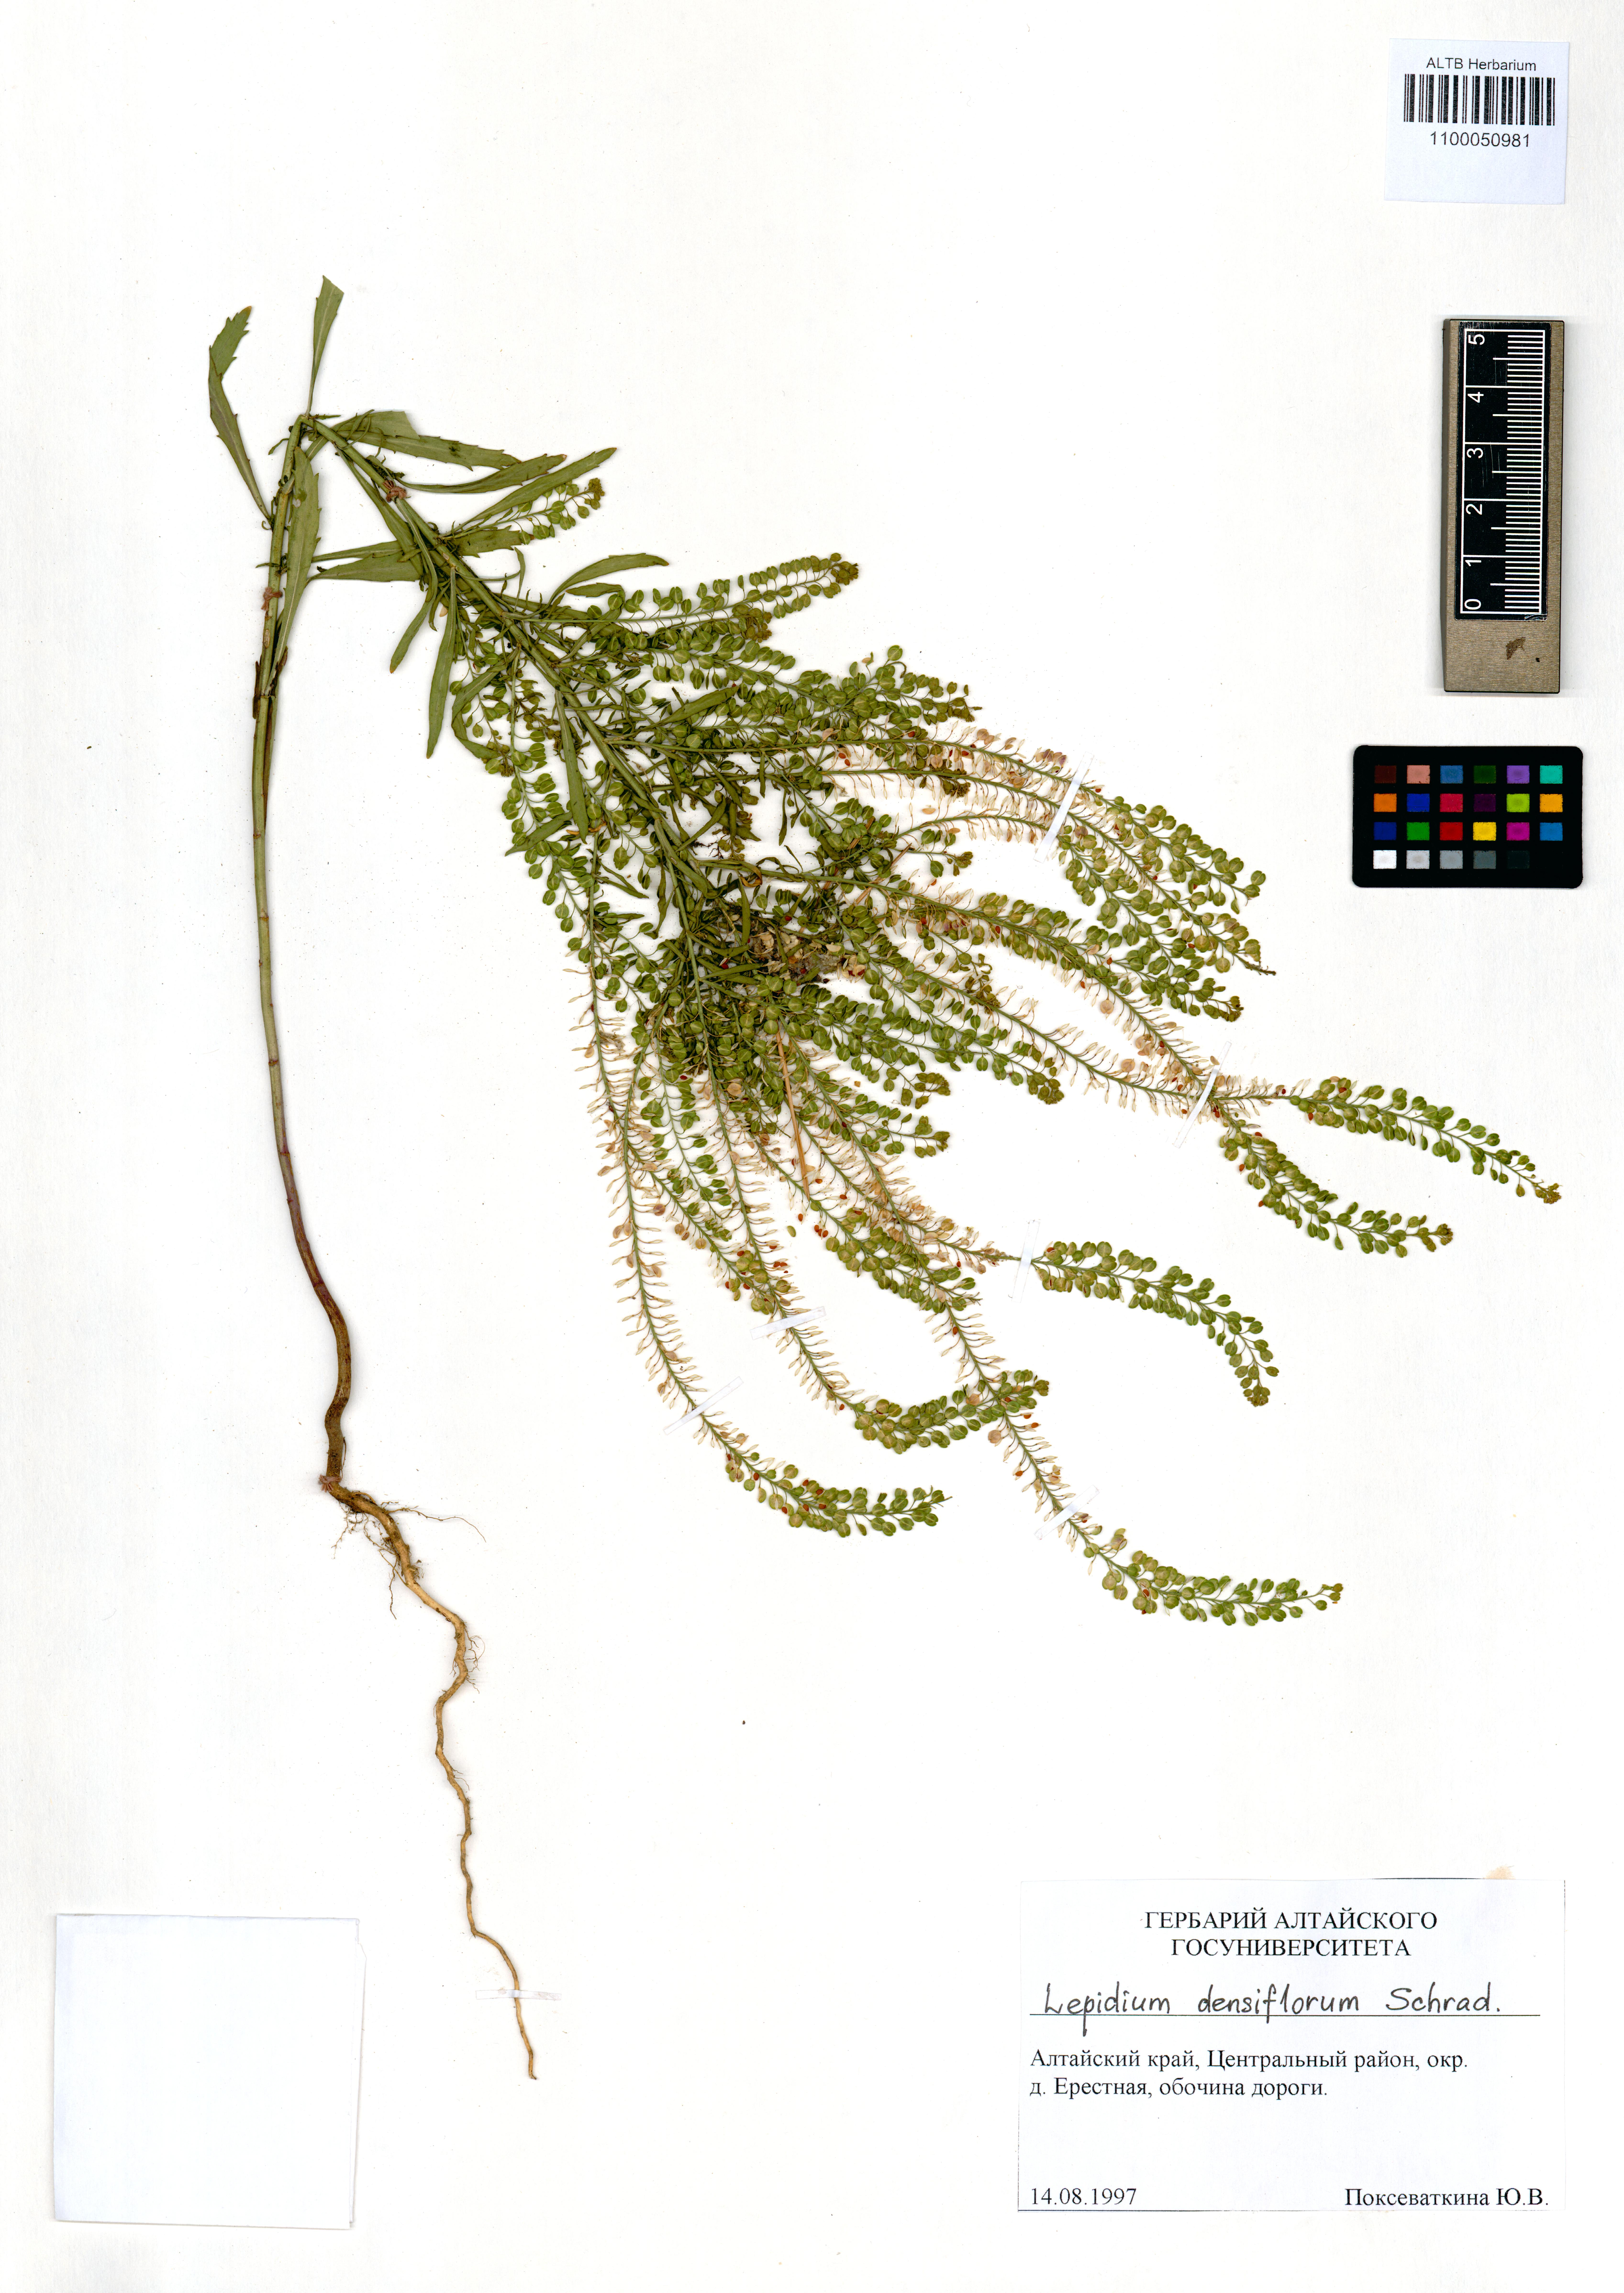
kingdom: Plantae
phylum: Tracheophyta
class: Magnoliopsida
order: Brassicales
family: Brassicaceae
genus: Lepidium
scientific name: Lepidium densiflorum
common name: Miner's pepperwort
